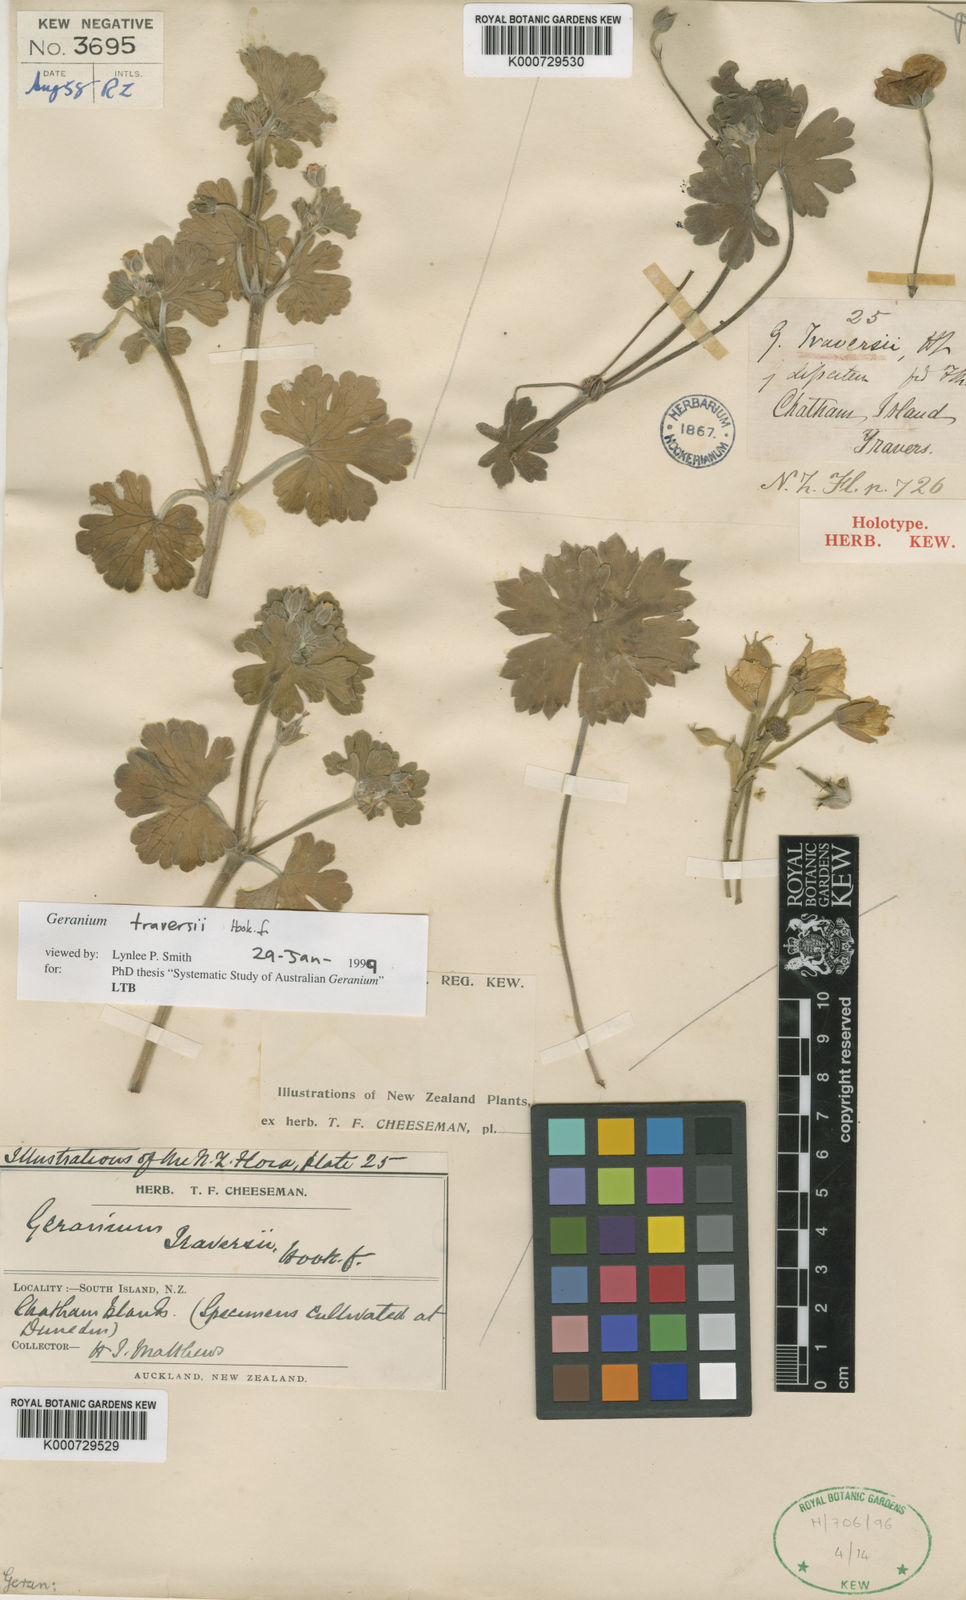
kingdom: Plantae
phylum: Tracheophyta
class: Magnoliopsida
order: Geraniales
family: Geraniaceae
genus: Geranium
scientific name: Geranium traversii
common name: Cranesbill
